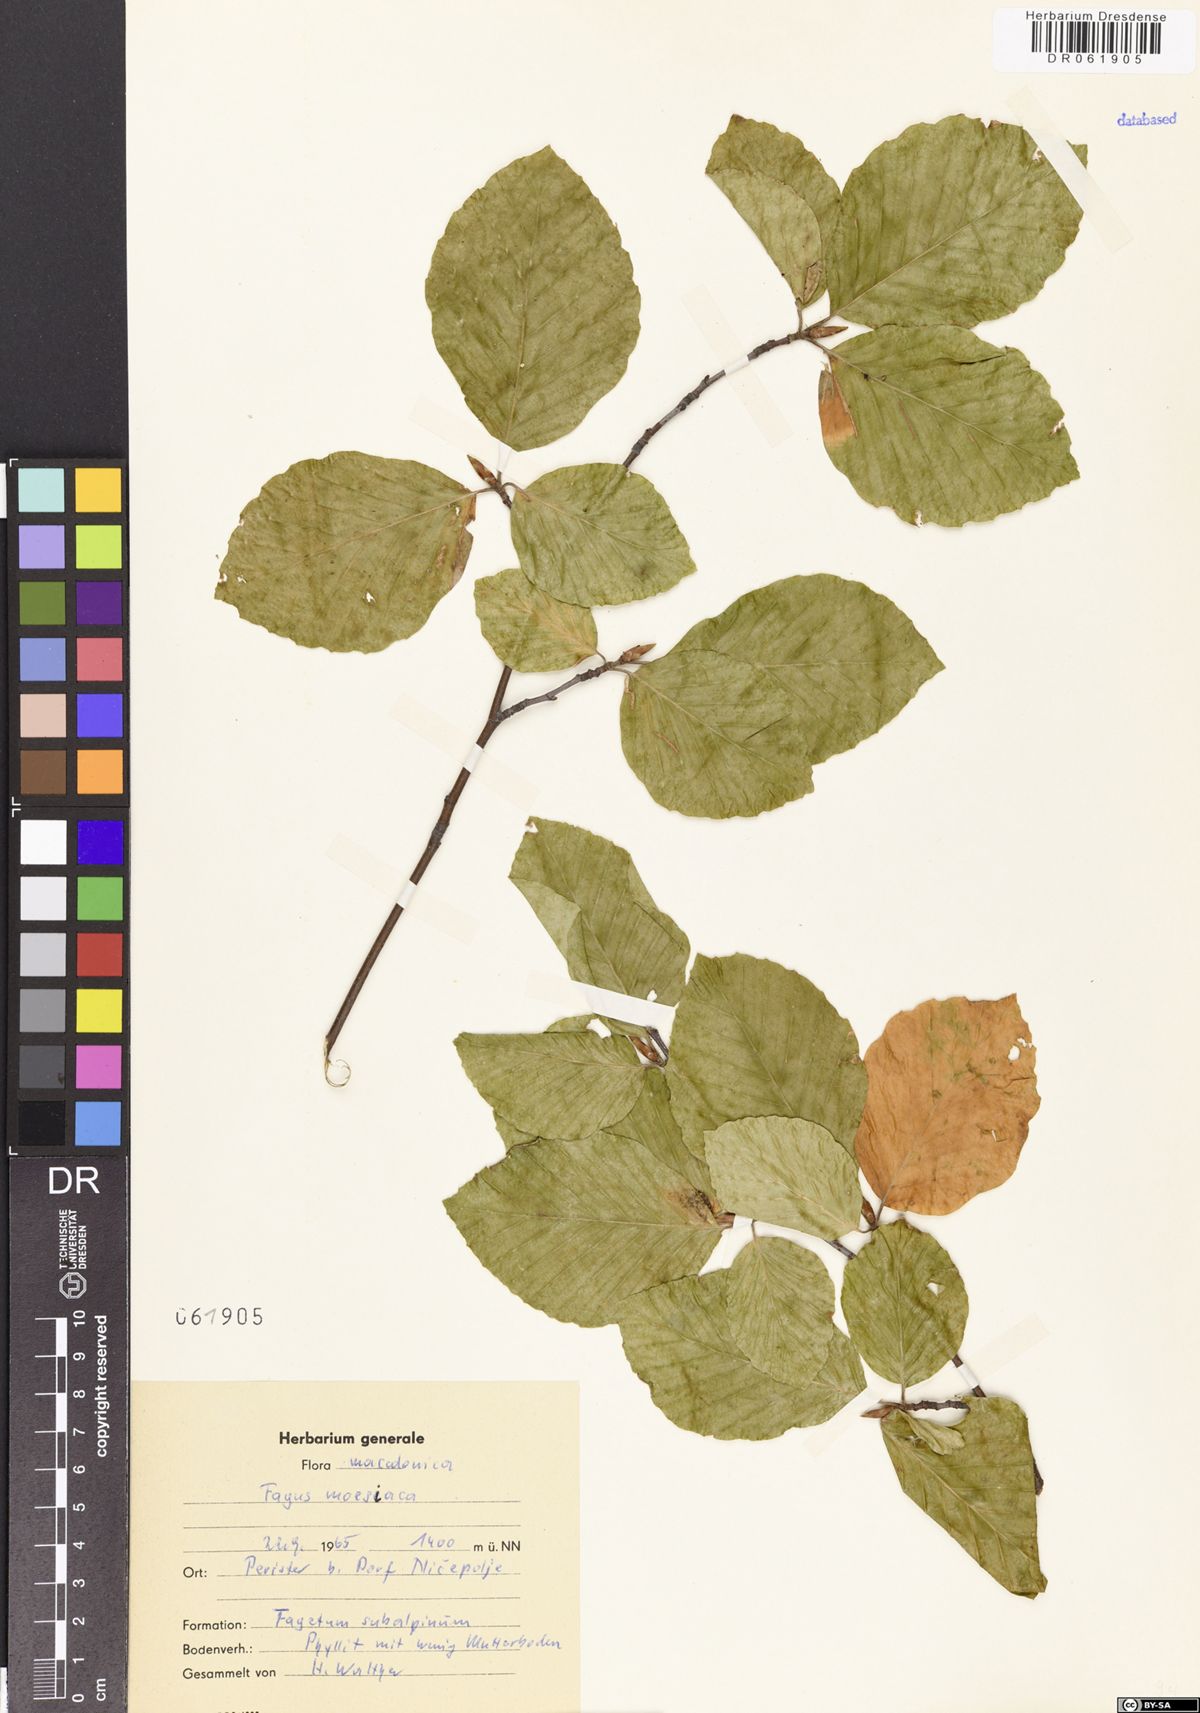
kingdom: Plantae
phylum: Tracheophyta
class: Magnoliopsida
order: Fagales
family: Fagaceae
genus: Fagus
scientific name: Fagus taurica
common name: Crimean beech
